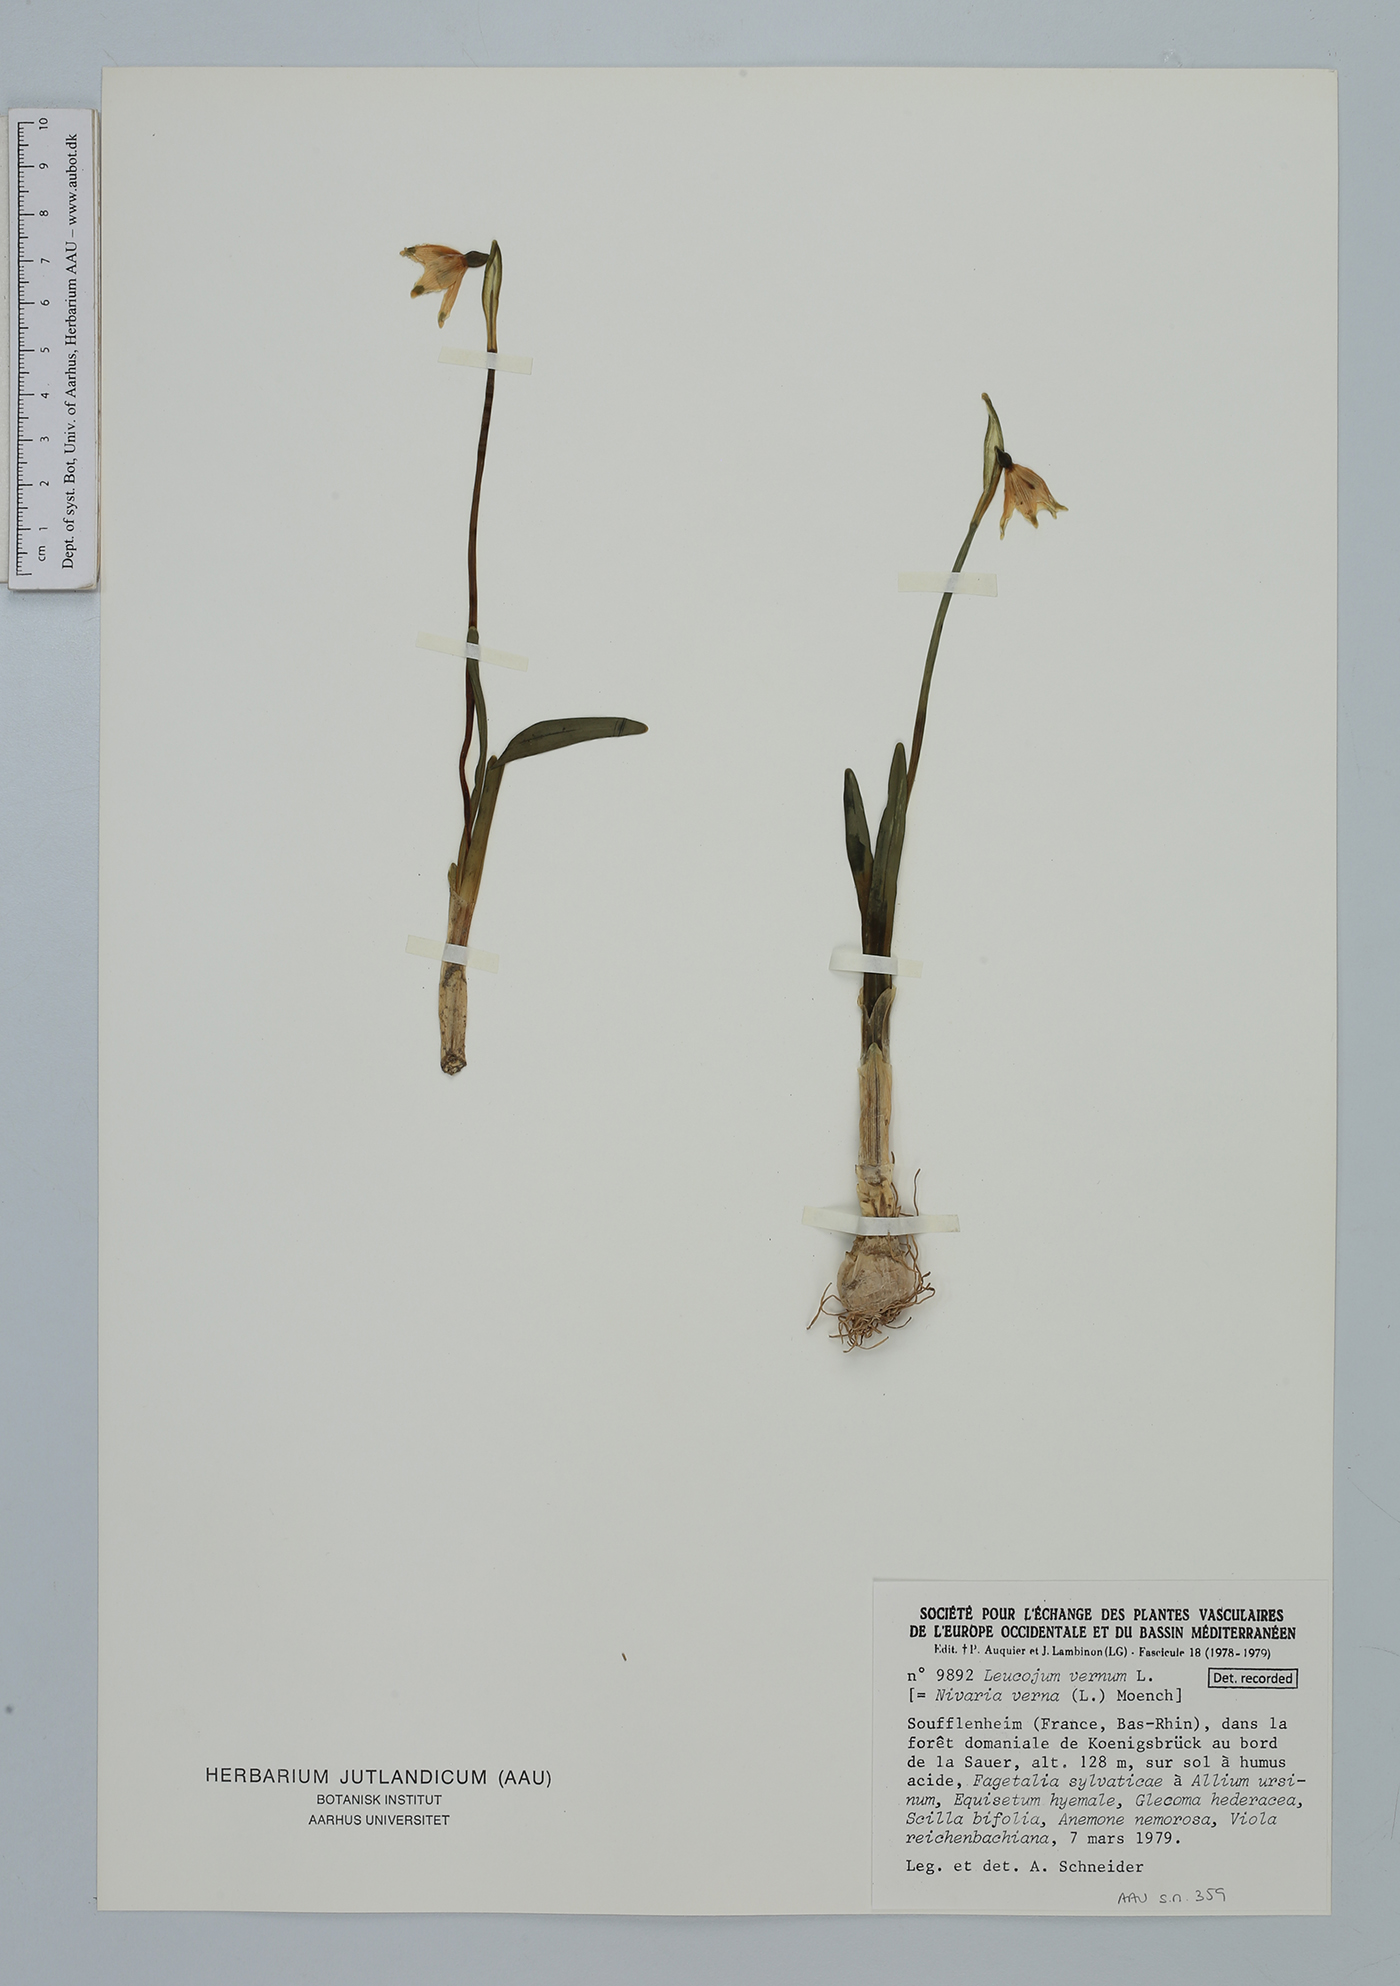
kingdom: Plantae
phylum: Tracheophyta
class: Liliopsida
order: Asparagales
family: Amaryllidaceae
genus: Leucojum
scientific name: Leucojum vernum
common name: Spring snowflake
